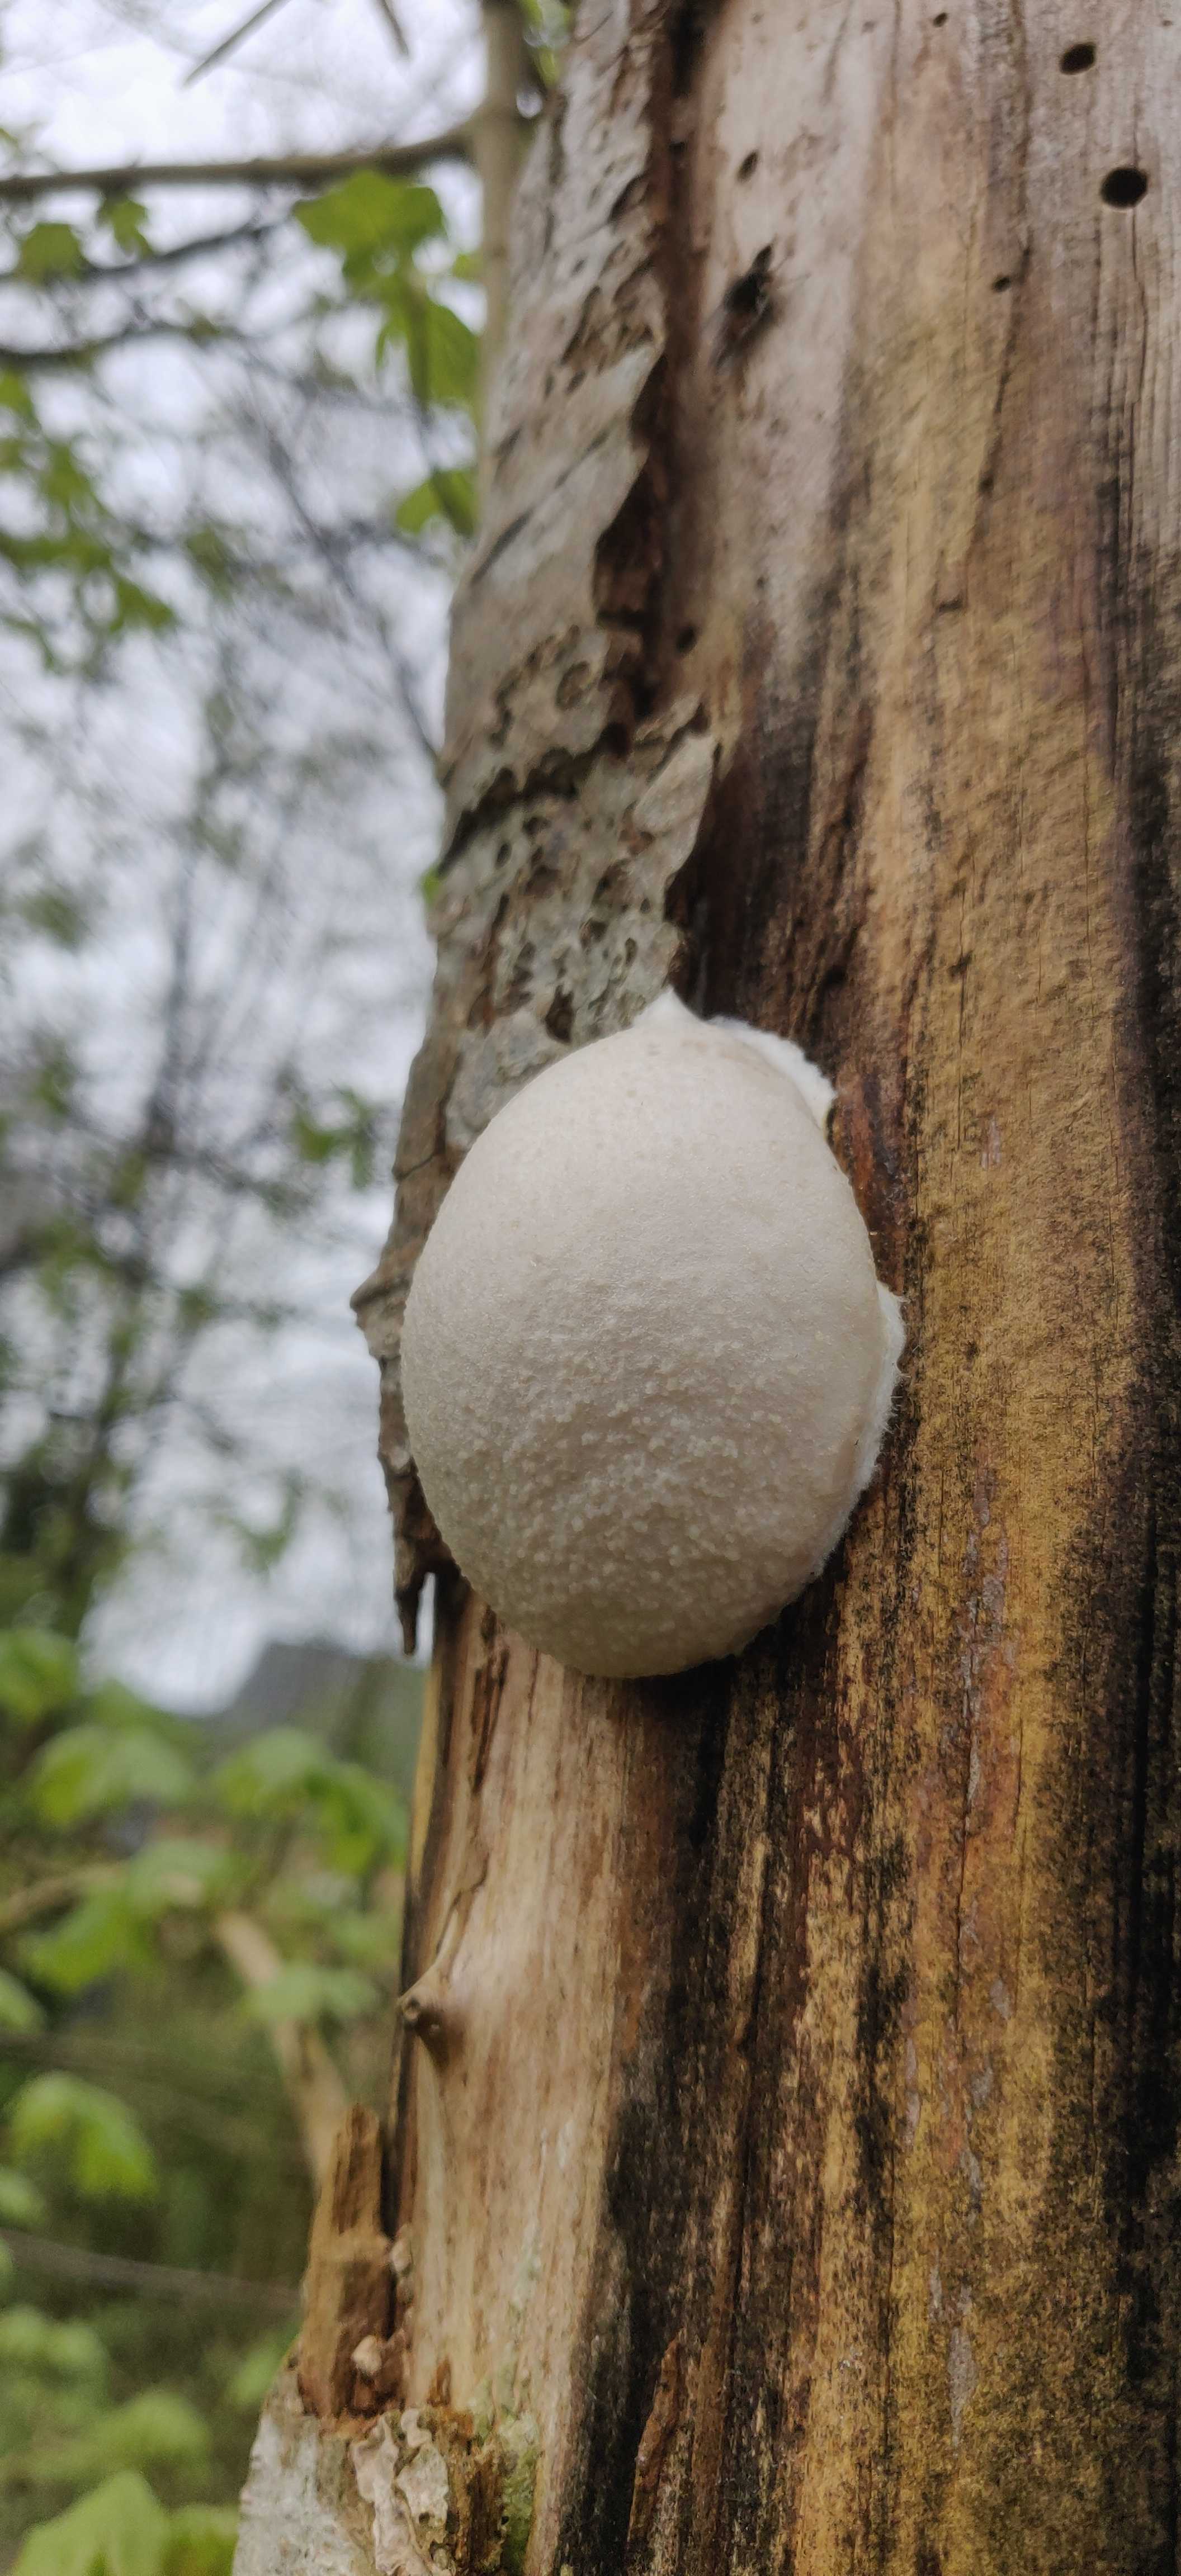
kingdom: Protozoa
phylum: Mycetozoa
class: Myxomycetes
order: Cribrariales
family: Tubiferaceae
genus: Reticularia
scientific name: Reticularia lycoperdon
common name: skinnende støvpude
